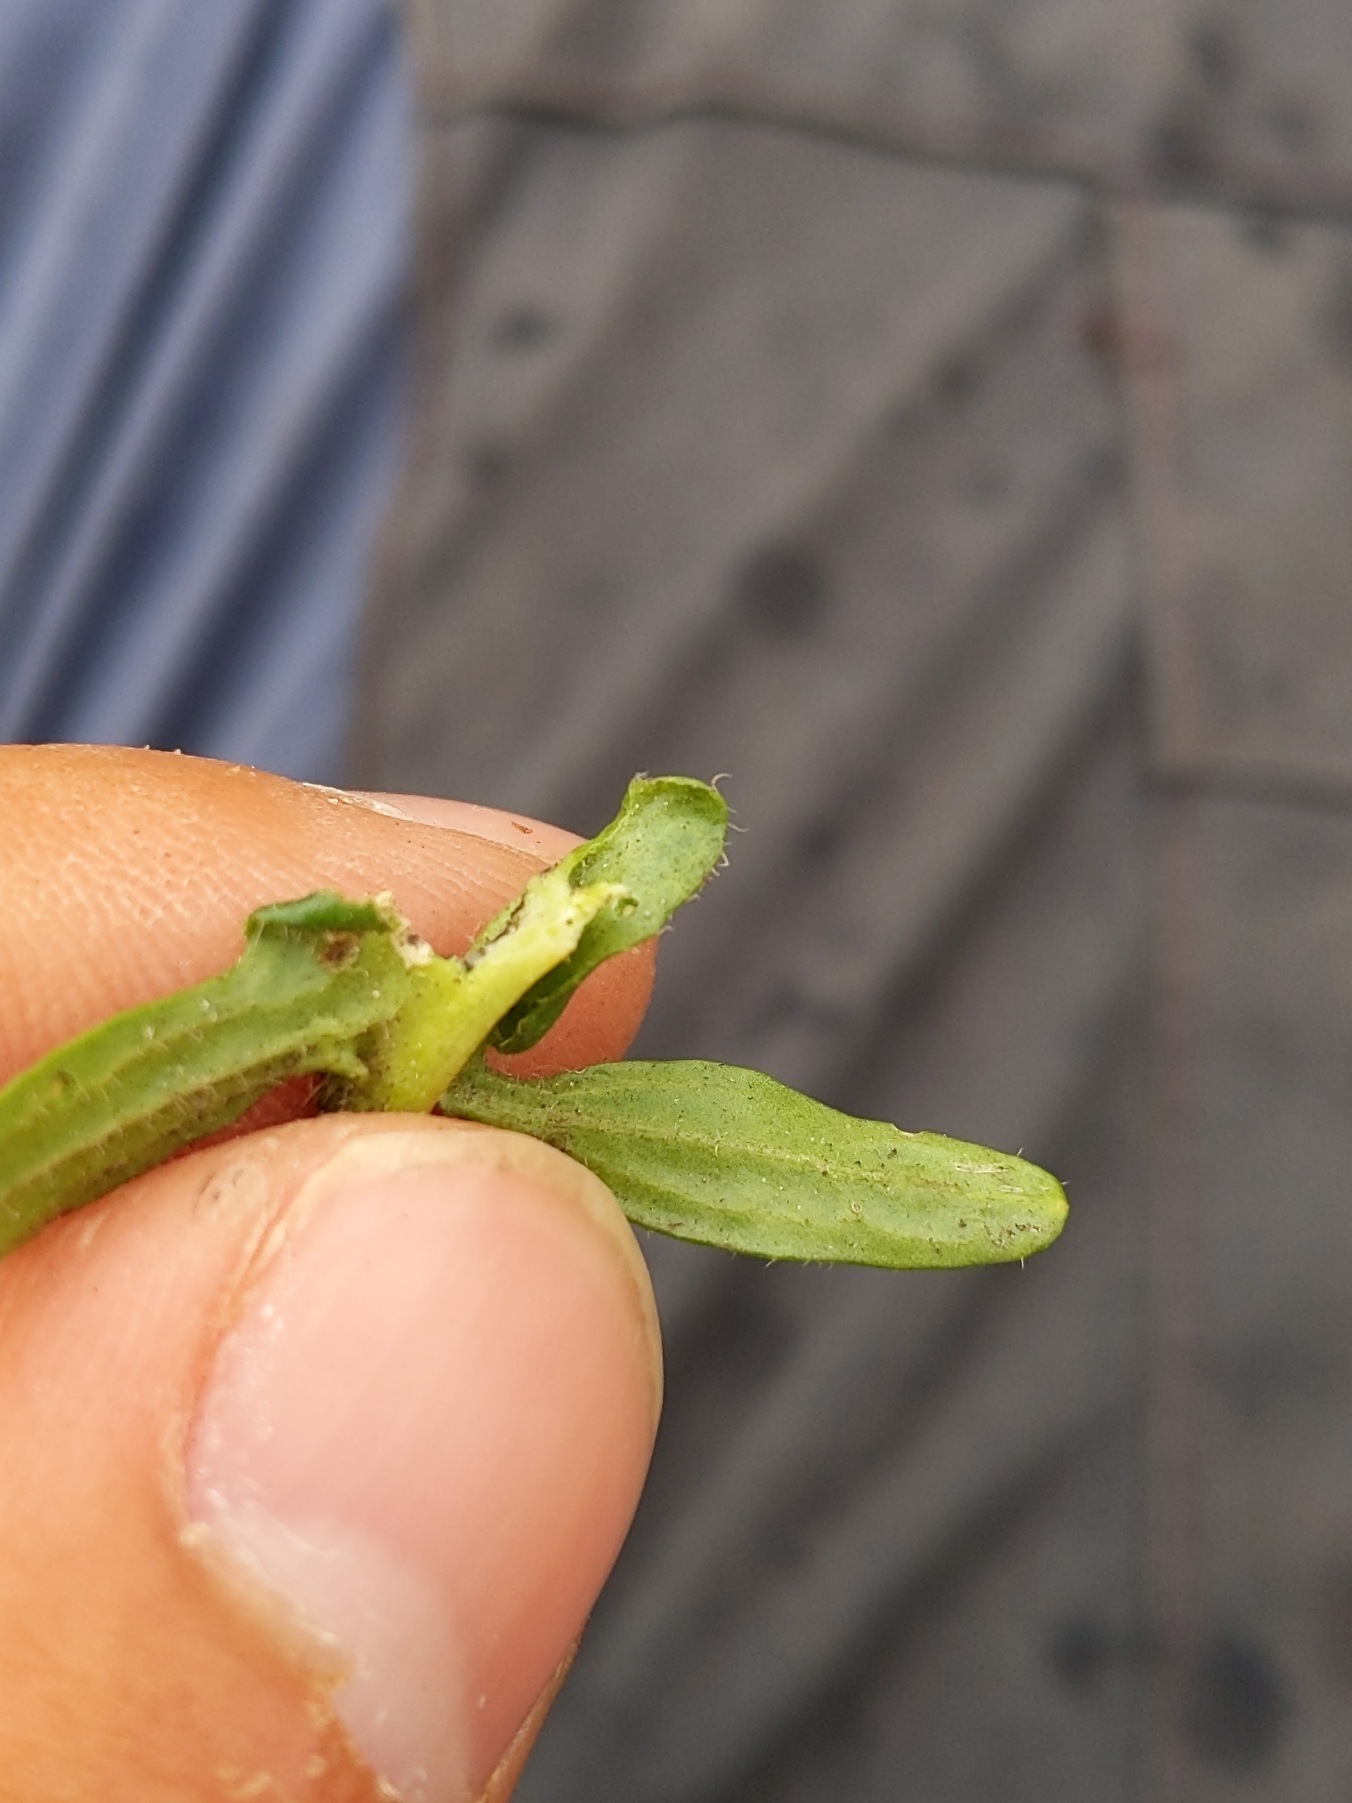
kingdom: Plantae
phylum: Tracheophyta
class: Magnoliopsida
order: Brassicales
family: Brassicaceae
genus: Barbarea
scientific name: Barbarea intermedia
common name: Randhåret vinterkarse
